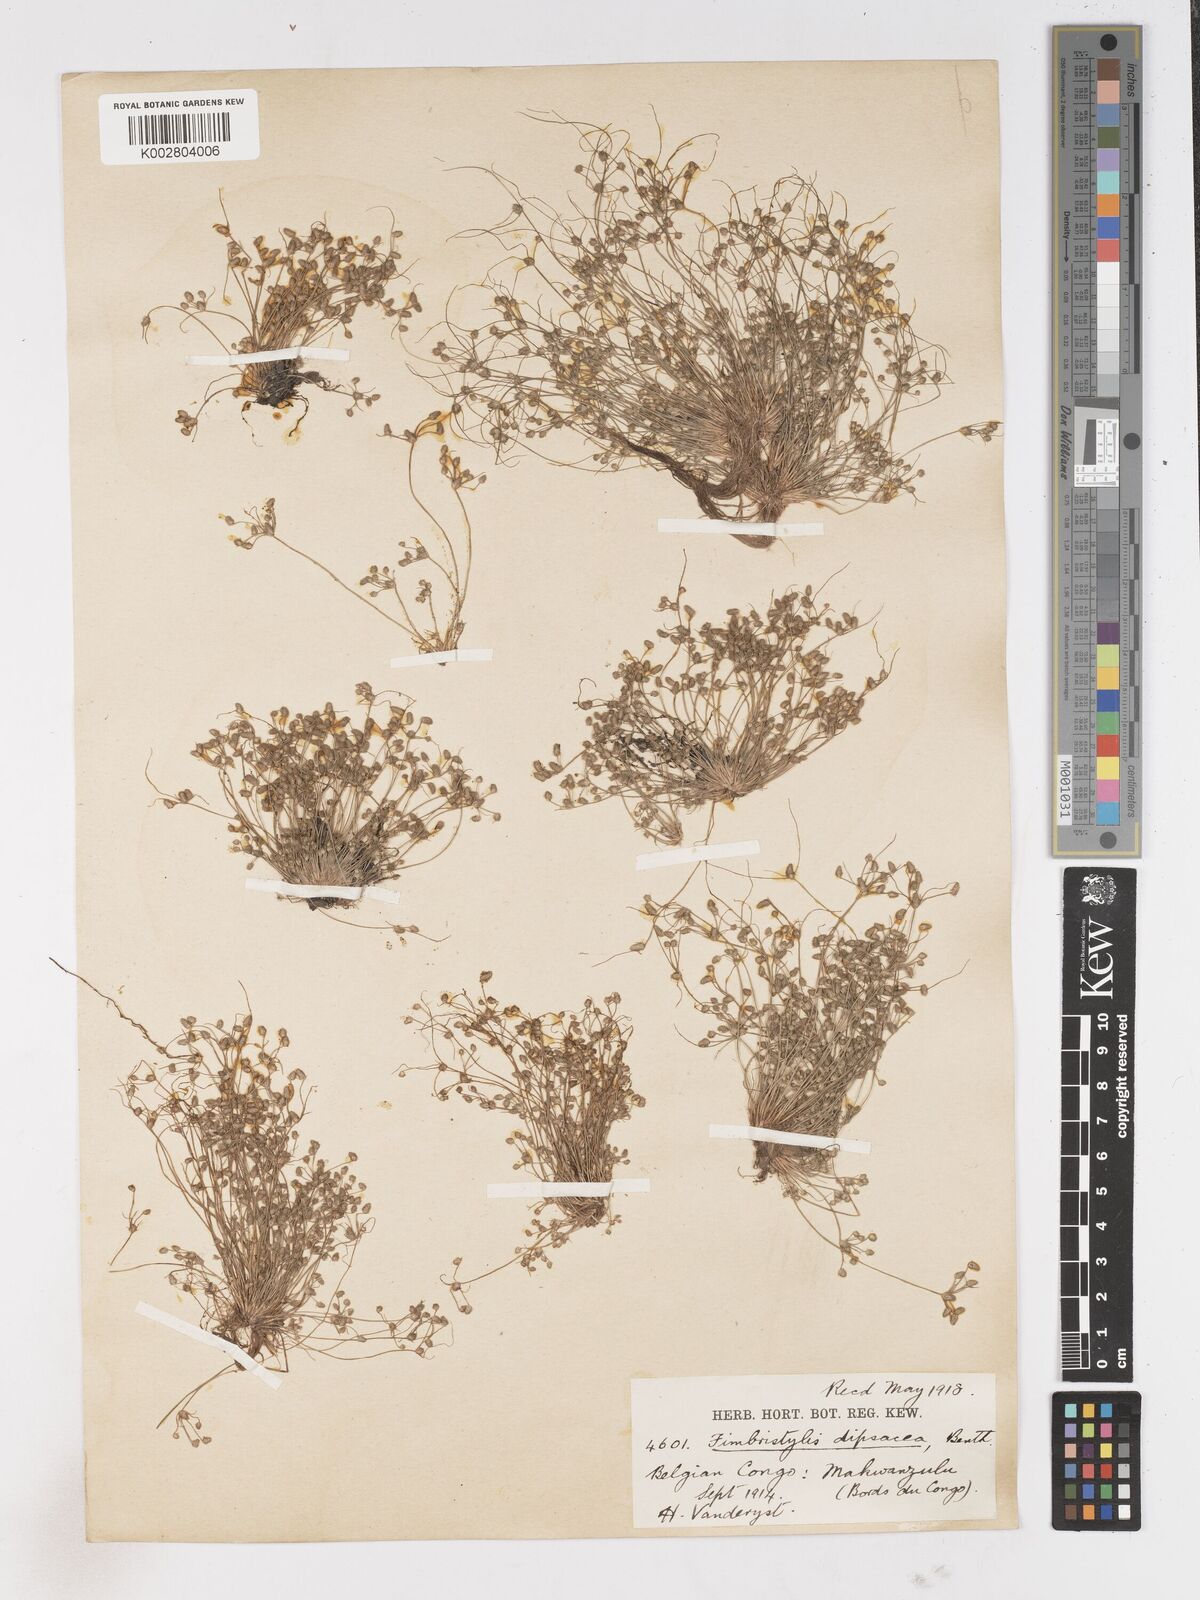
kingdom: Plantae
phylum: Tracheophyta
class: Liliopsida
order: Poales
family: Cyperaceae
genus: Fimbristylis
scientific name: Fimbristylis dipsacea
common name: Harper's fimbristylis
